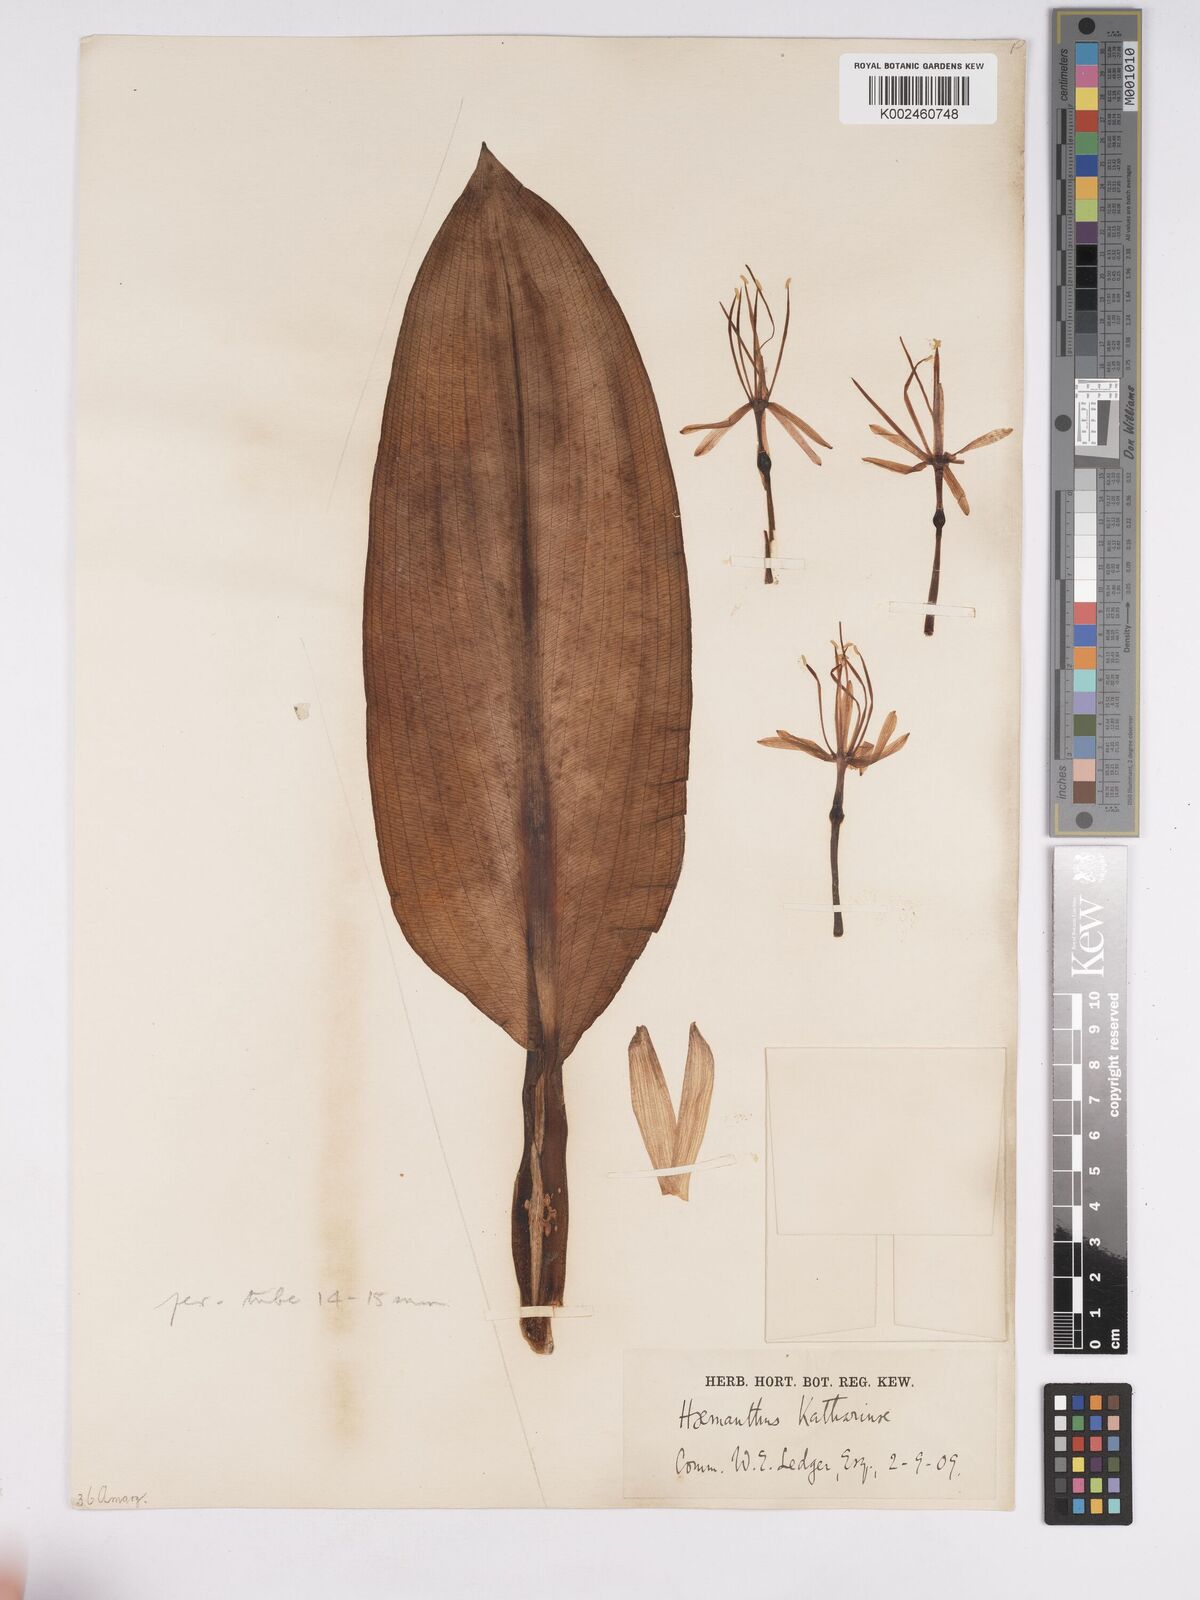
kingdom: Plantae
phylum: Tracheophyta
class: Liliopsida
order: Asparagales
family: Amaryllidaceae
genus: Scadoxus
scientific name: Scadoxus multiflorus
